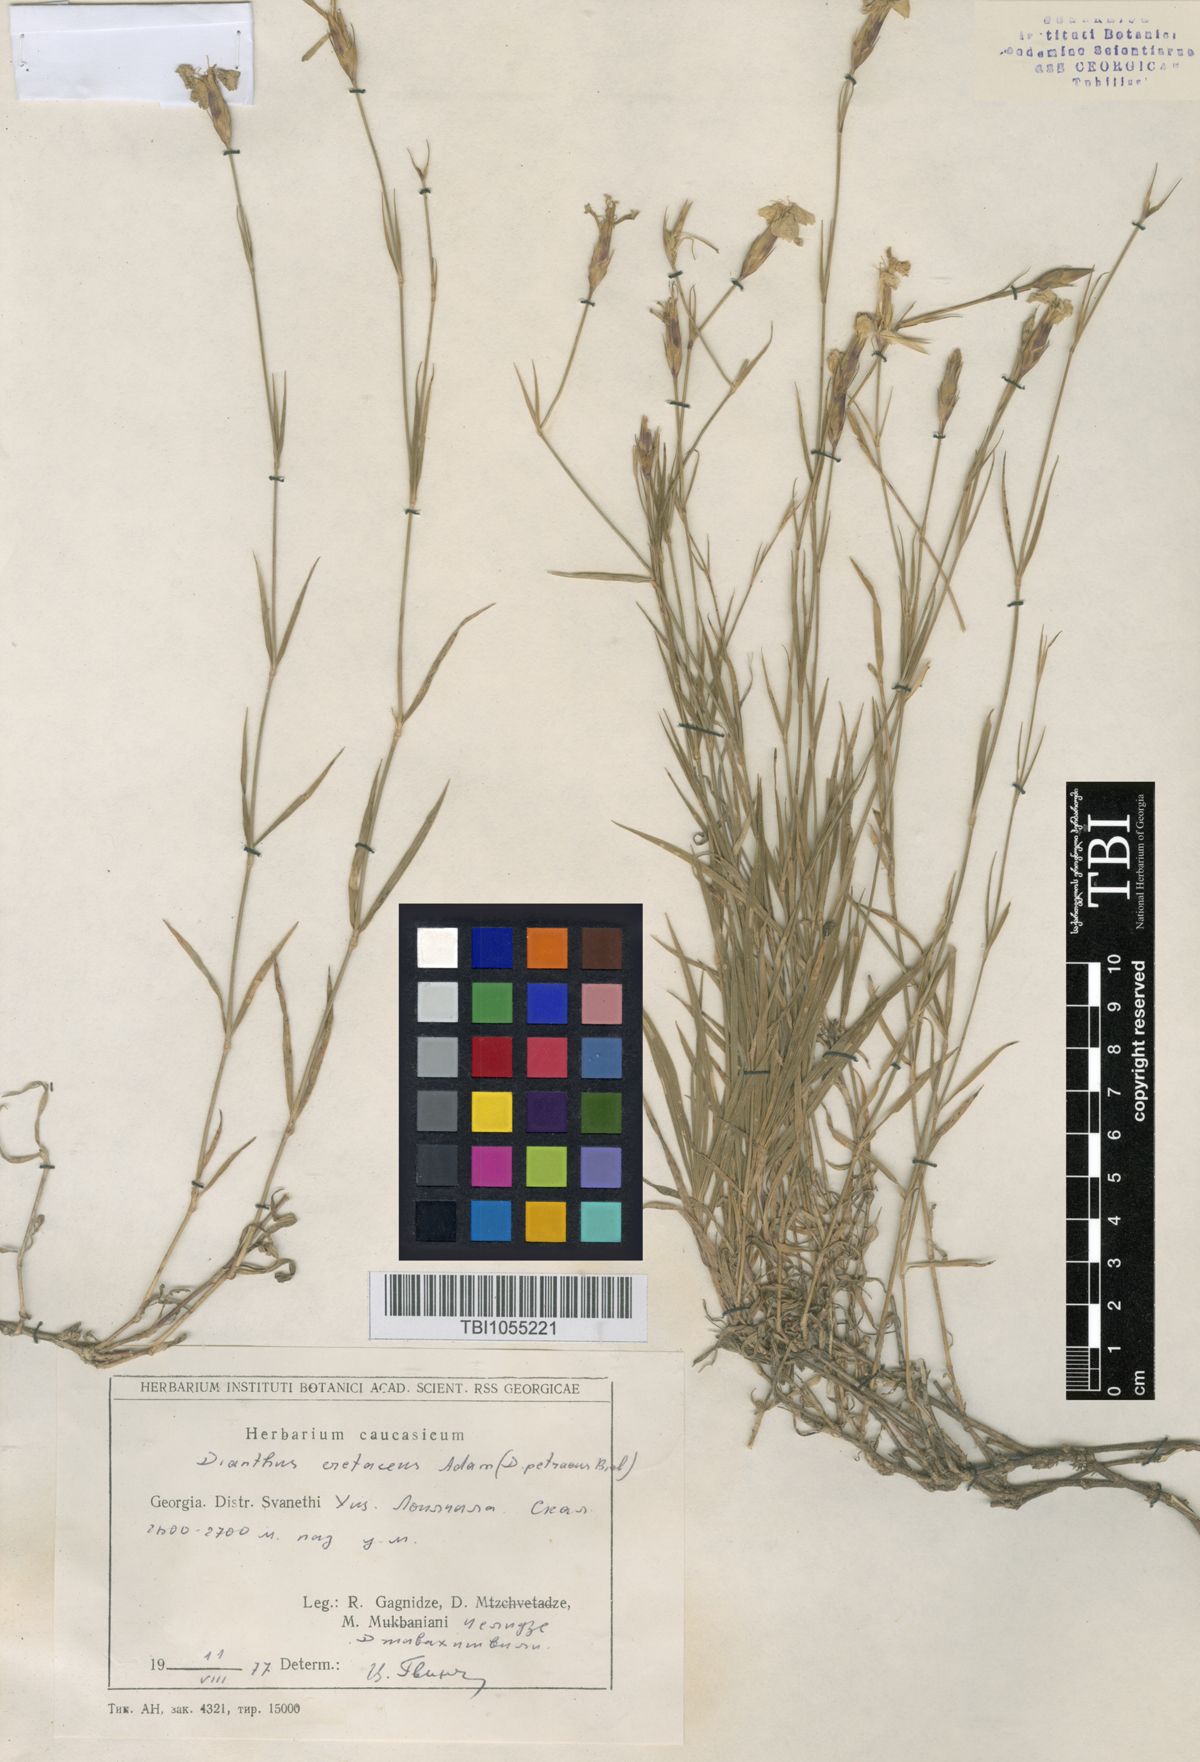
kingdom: Plantae
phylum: Tracheophyta
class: Magnoliopsida
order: Caryophyllales
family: Caryophyllaceae
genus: Dianthus
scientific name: Dianthus cretaceus
